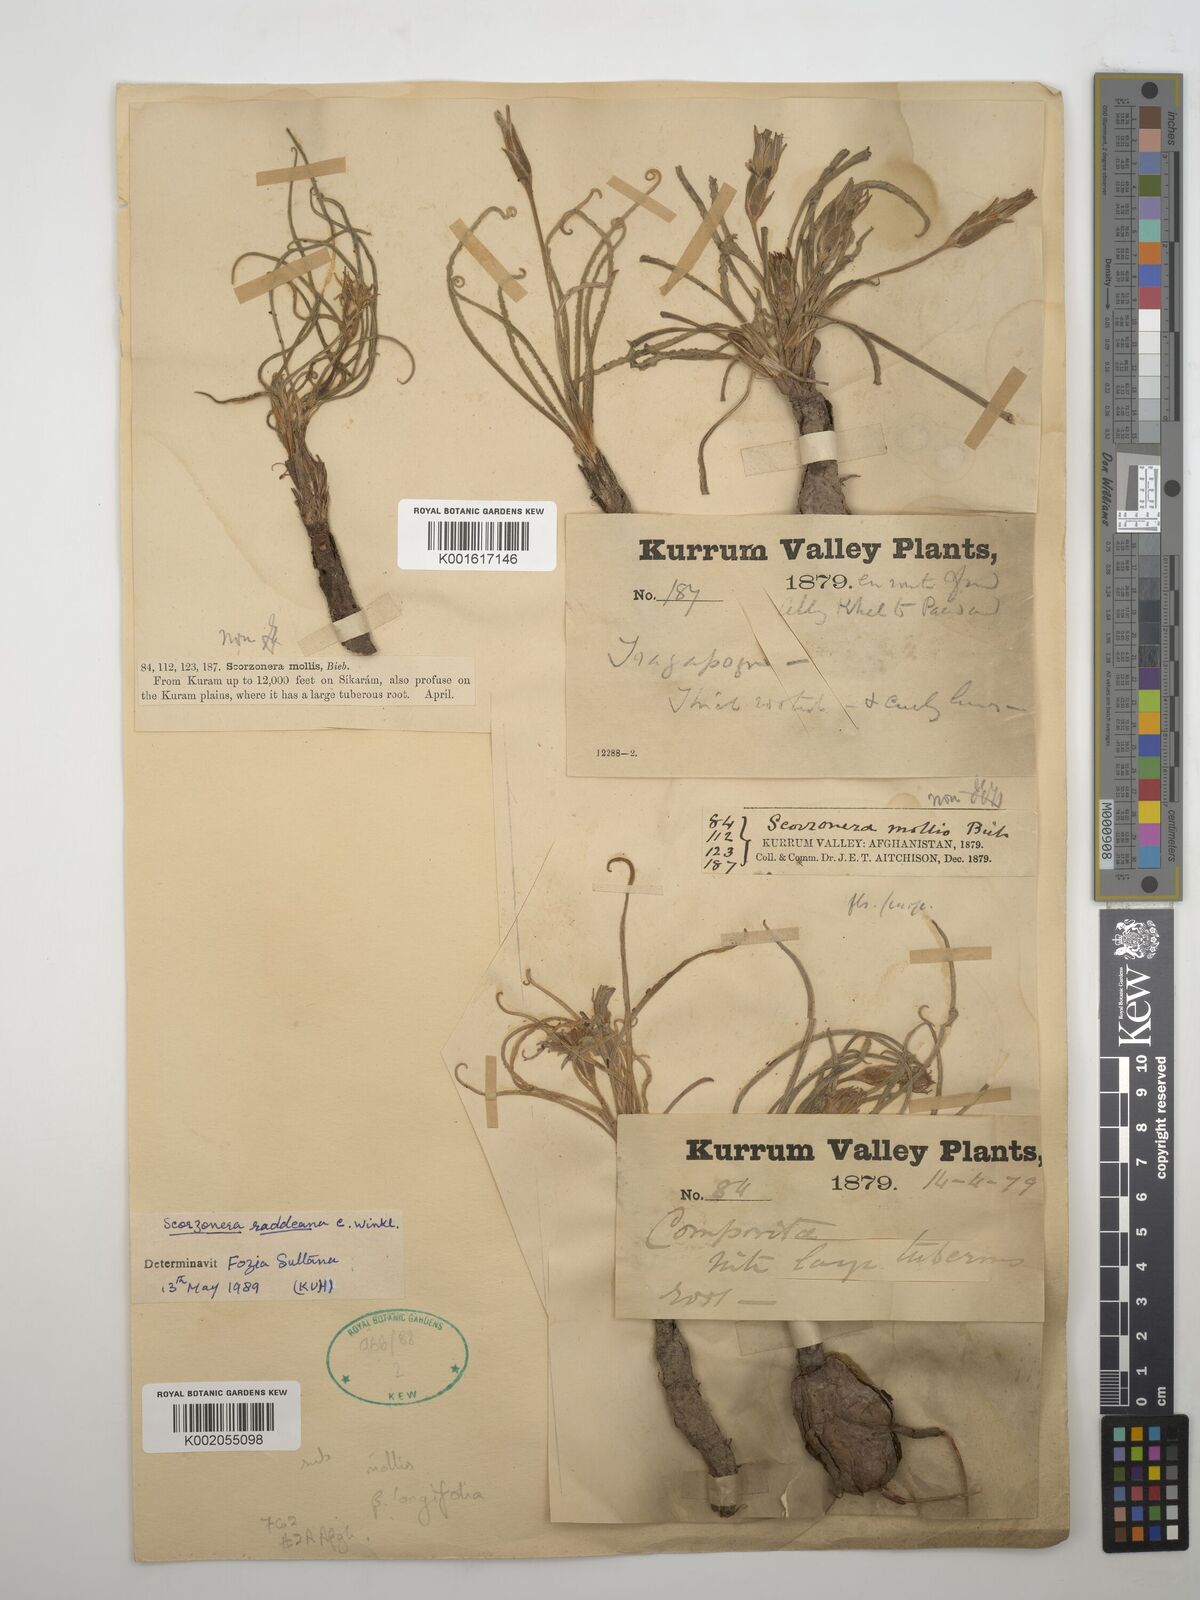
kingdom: Plantae
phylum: Tracheophyta
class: Magnoliopsida
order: Asterales
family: Asteraceae
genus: Candollea
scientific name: Candollea raddeana
